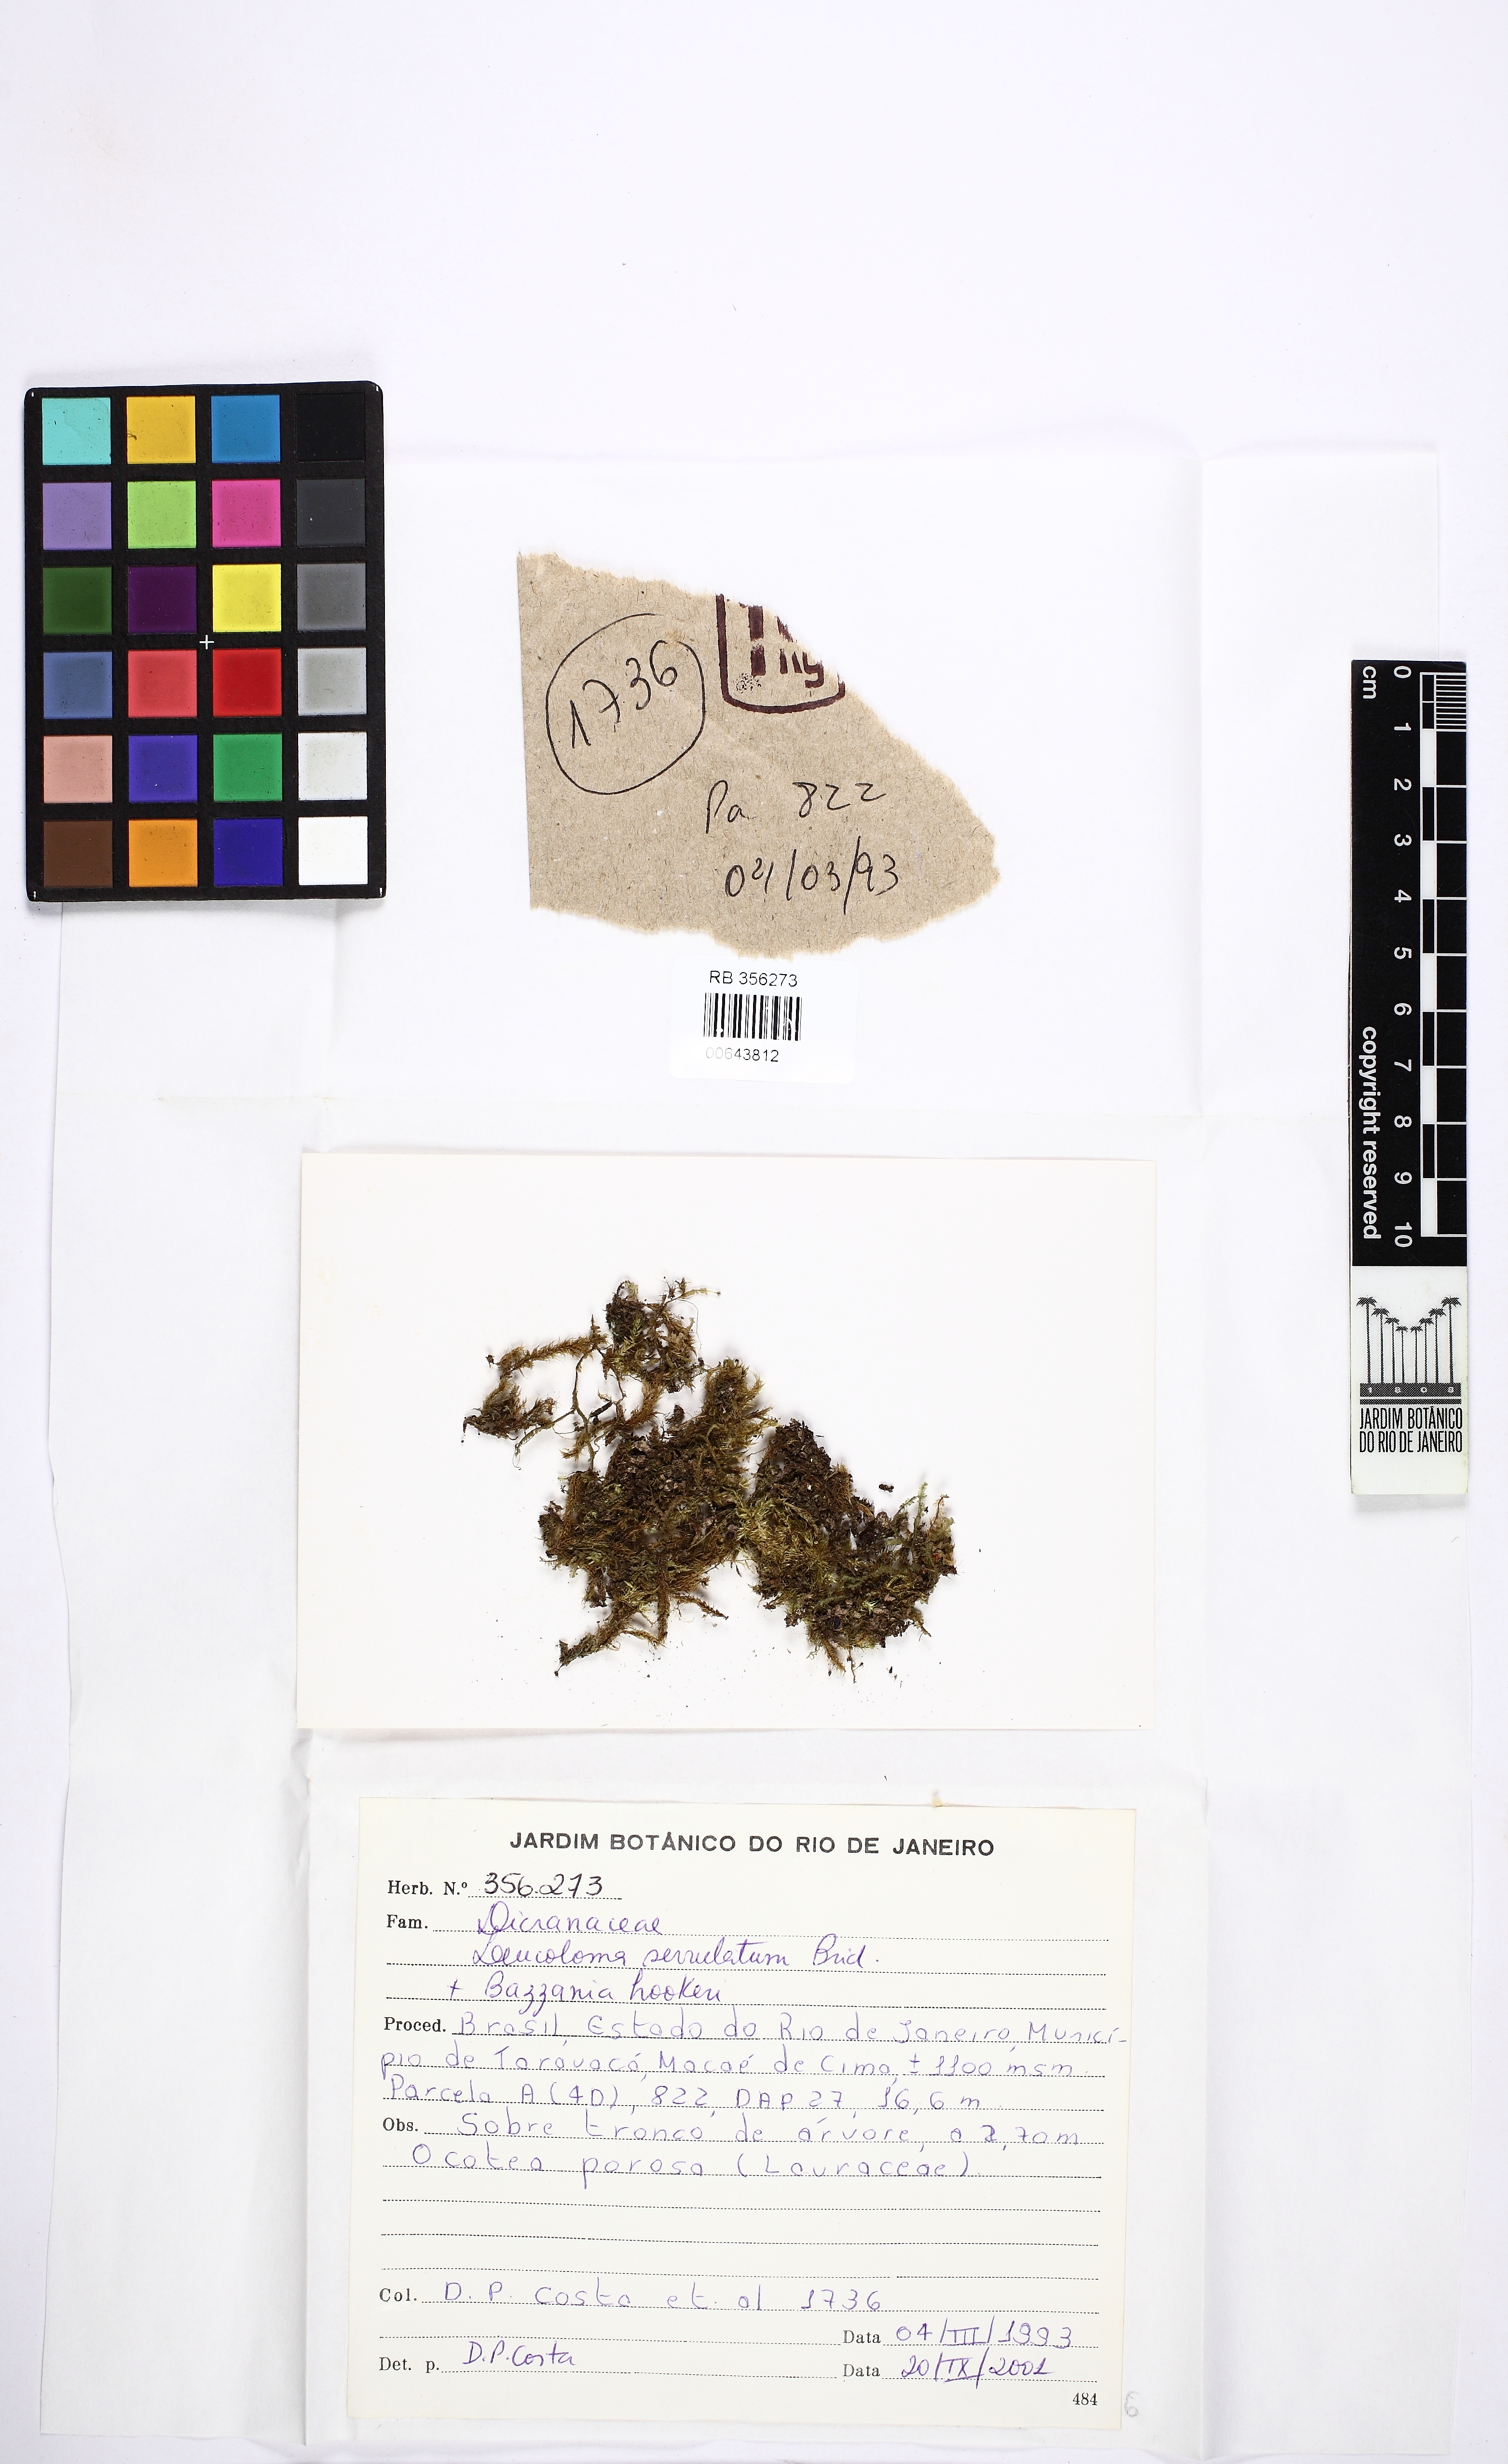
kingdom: Plantae
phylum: Bryophyta
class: Bryopsida
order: Dicranales
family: Dicranaceae
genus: Leucoloma
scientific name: Leucoloma serrulatum
